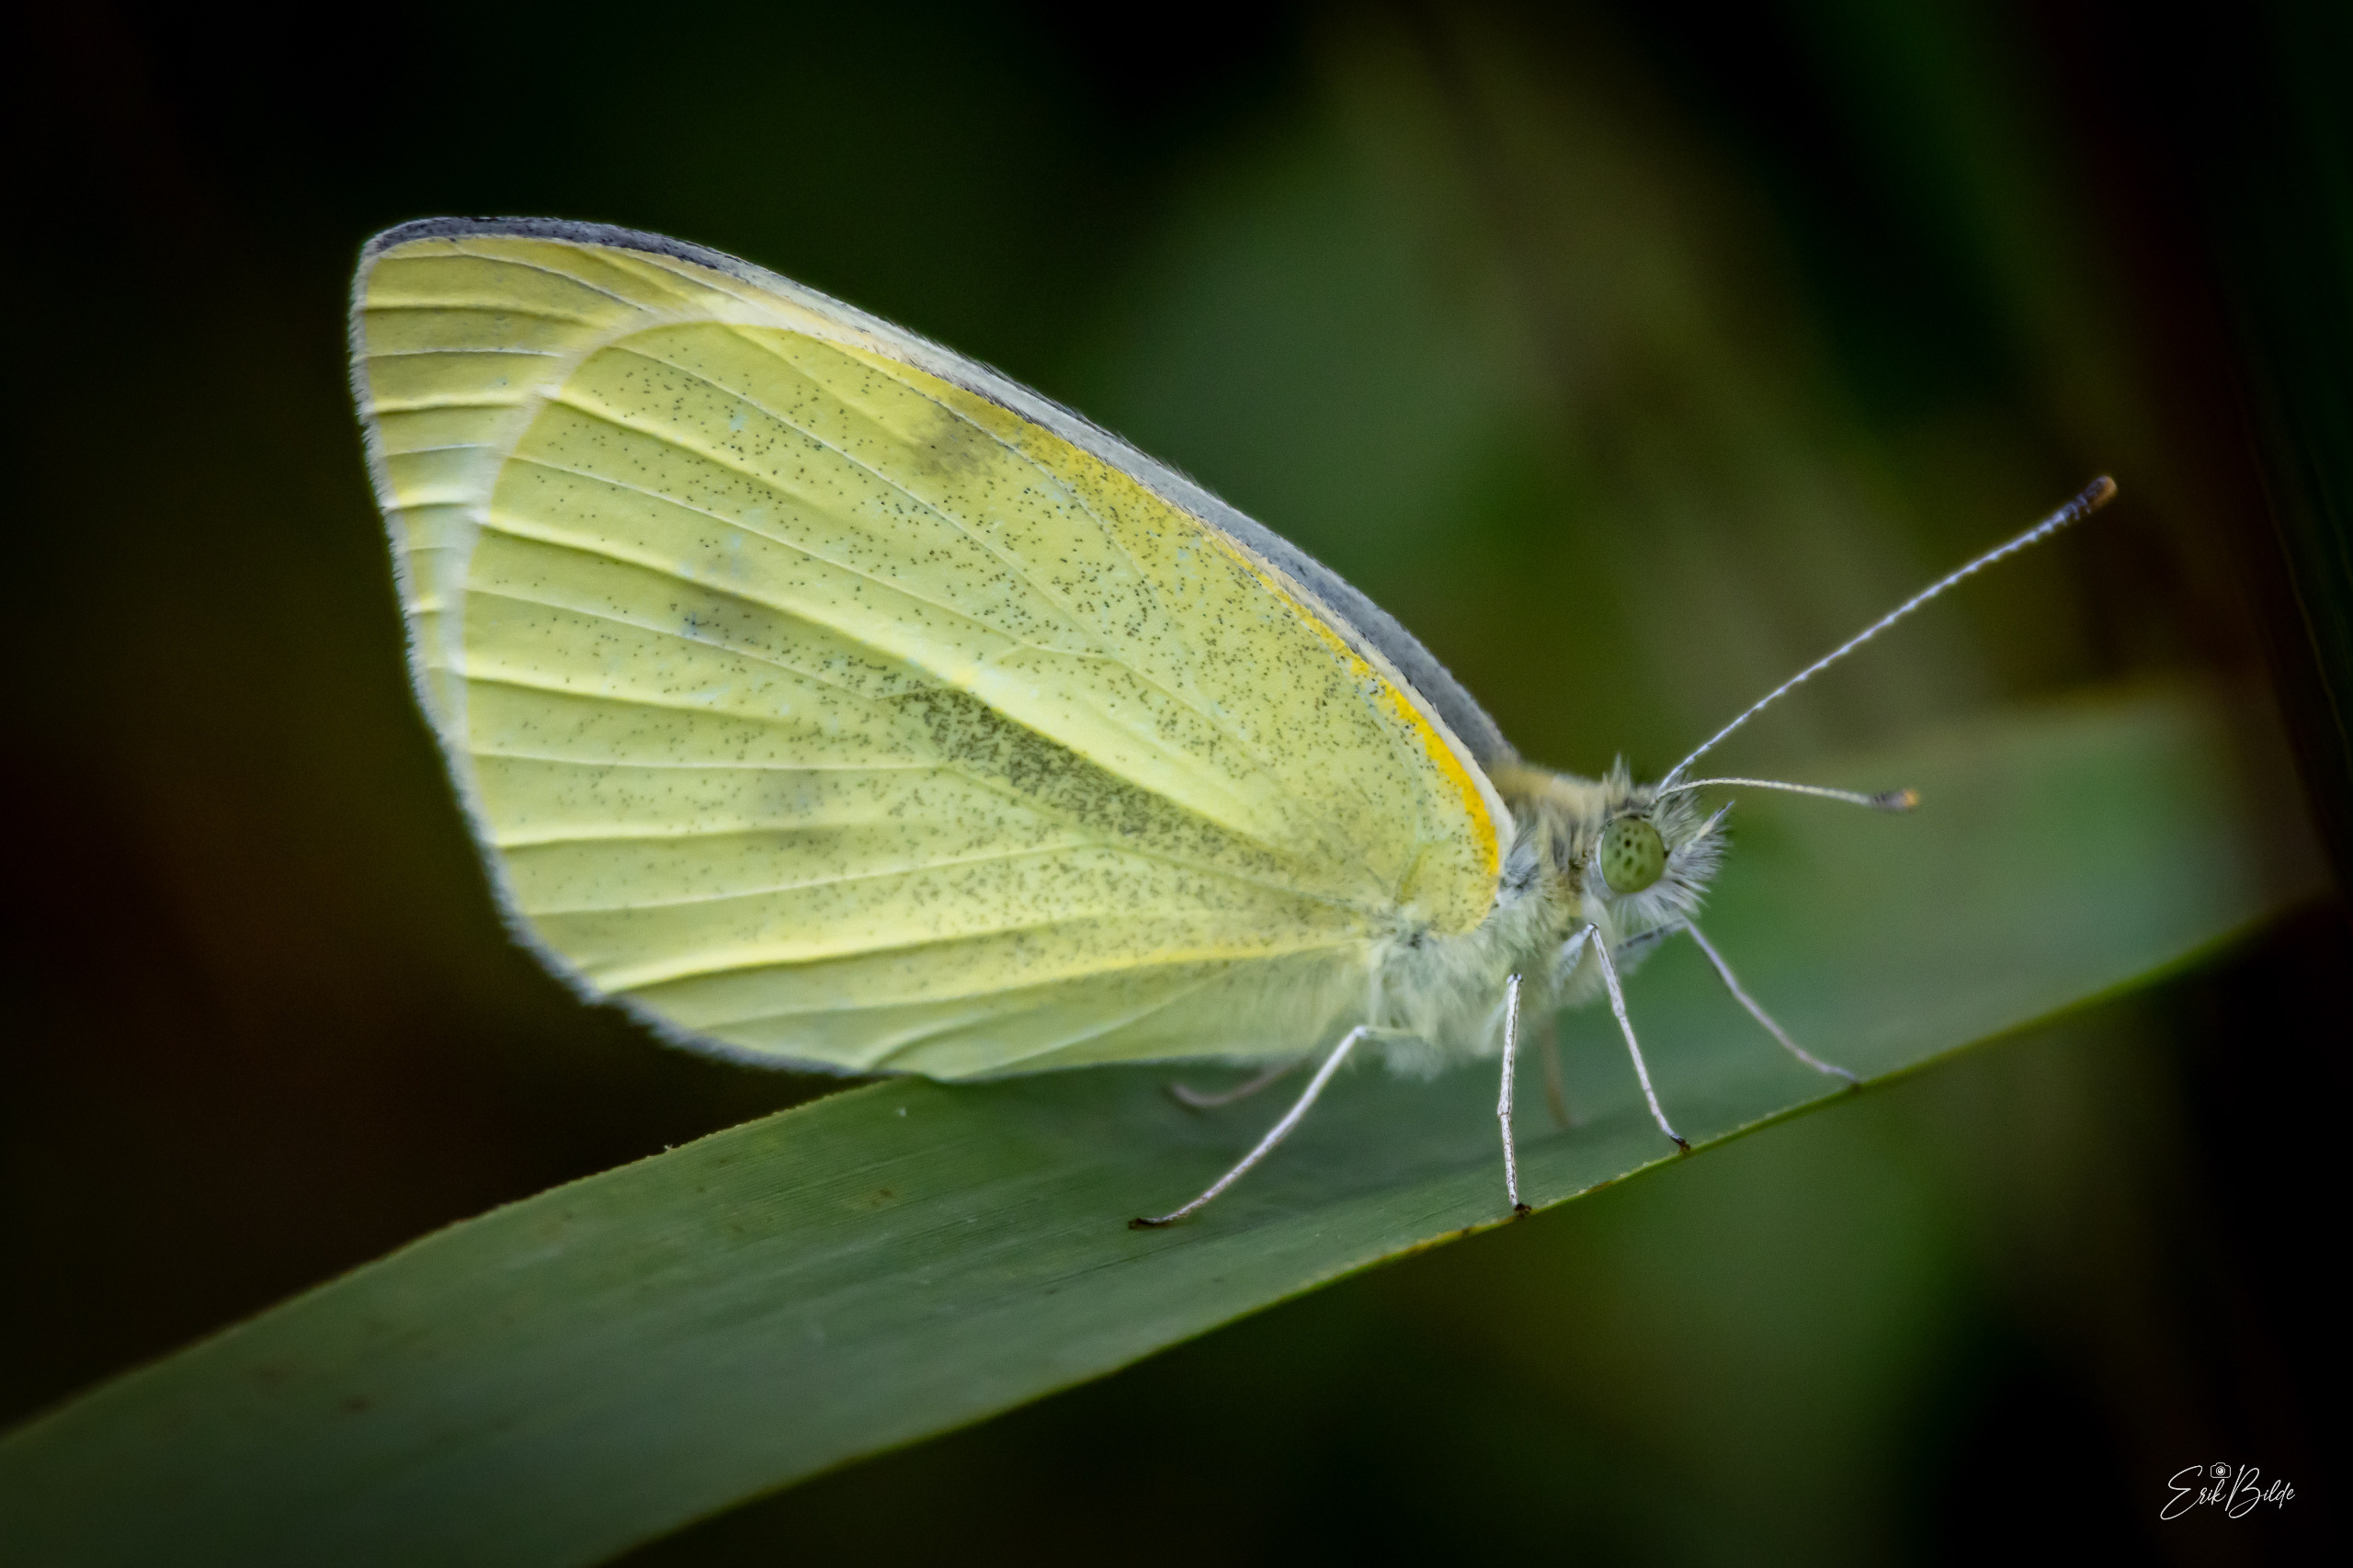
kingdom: Animalia
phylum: Arthropoda
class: Insecta
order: Lepidoptera
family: Pieridae
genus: Pieris
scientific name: Pieris rapae
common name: Lille kålsommerfugl
